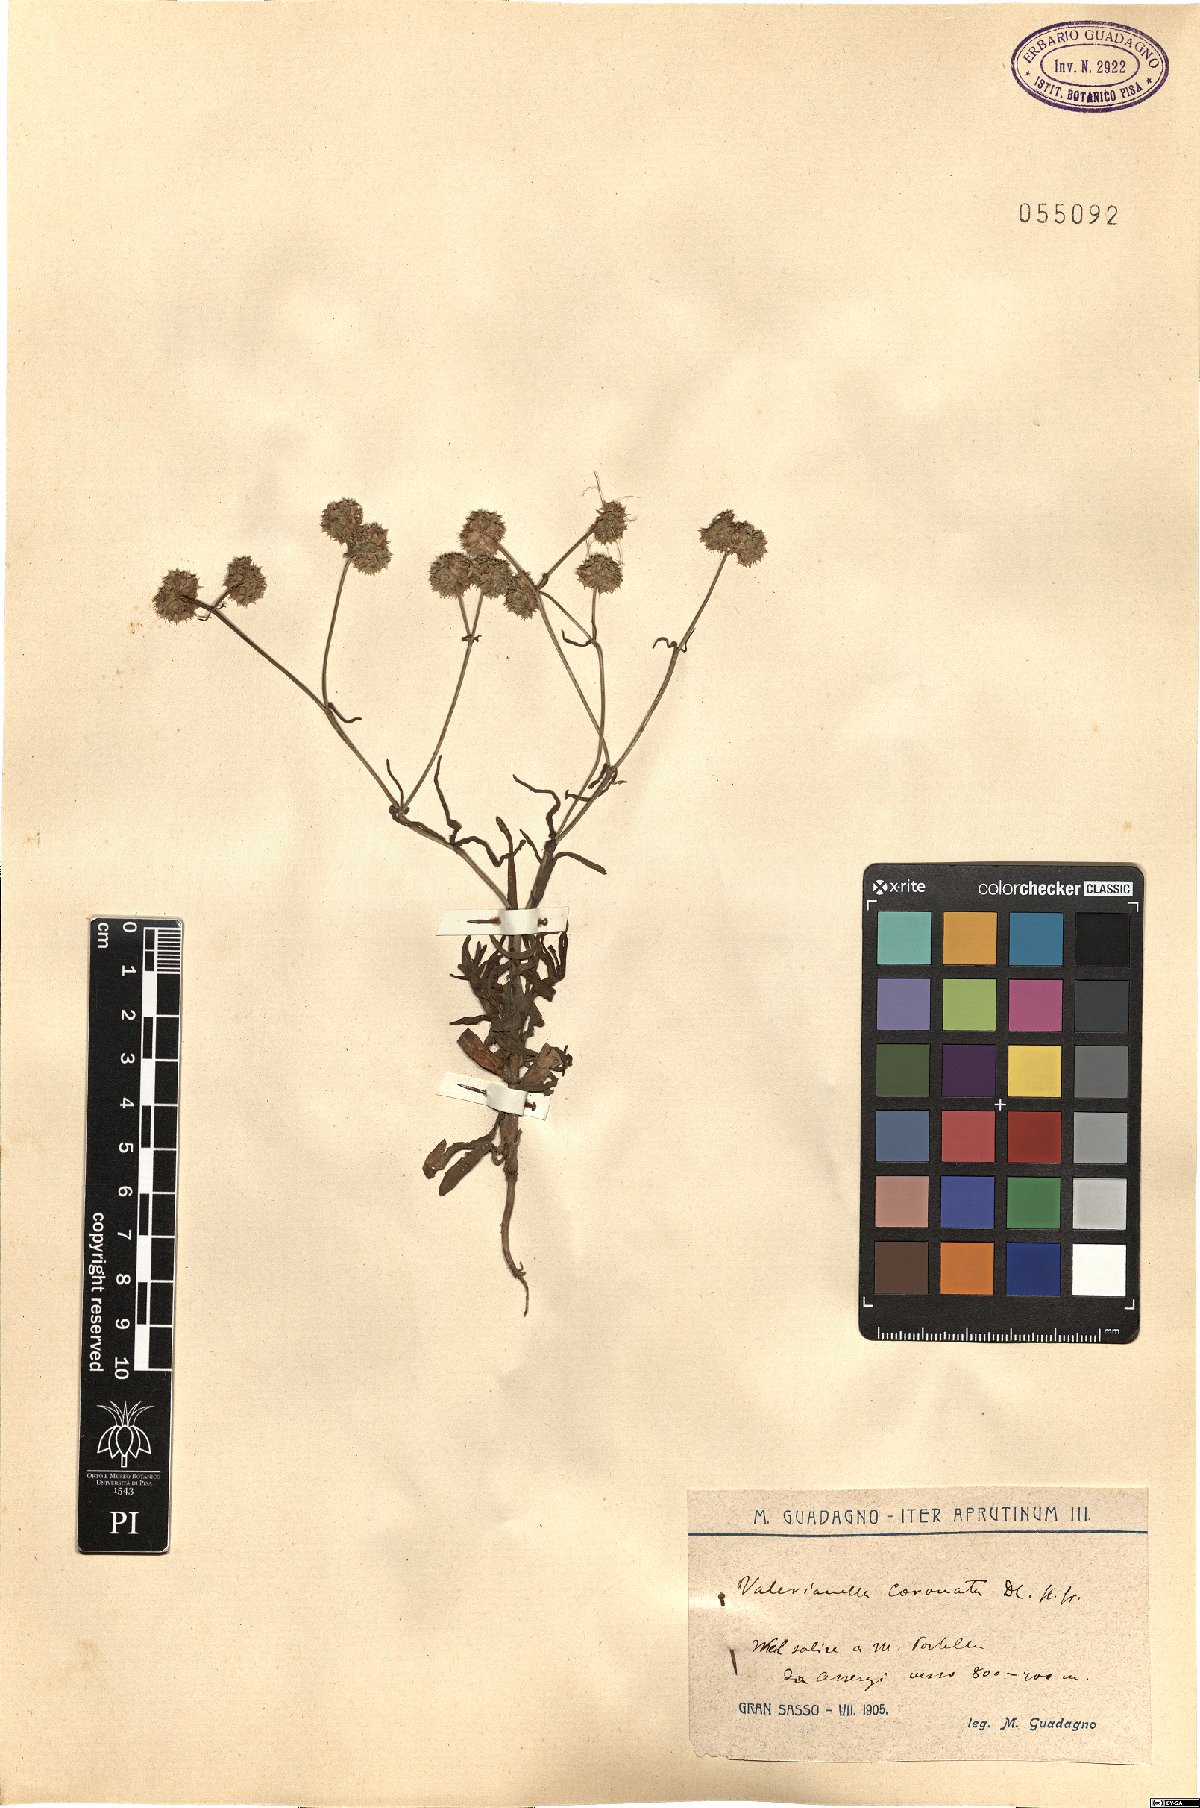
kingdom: Plantae
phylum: Tracheophyta
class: Magnoliopsida
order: Dipsacales
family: Caprifoliaceae
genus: Valerianella
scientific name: Valerianella coronata
